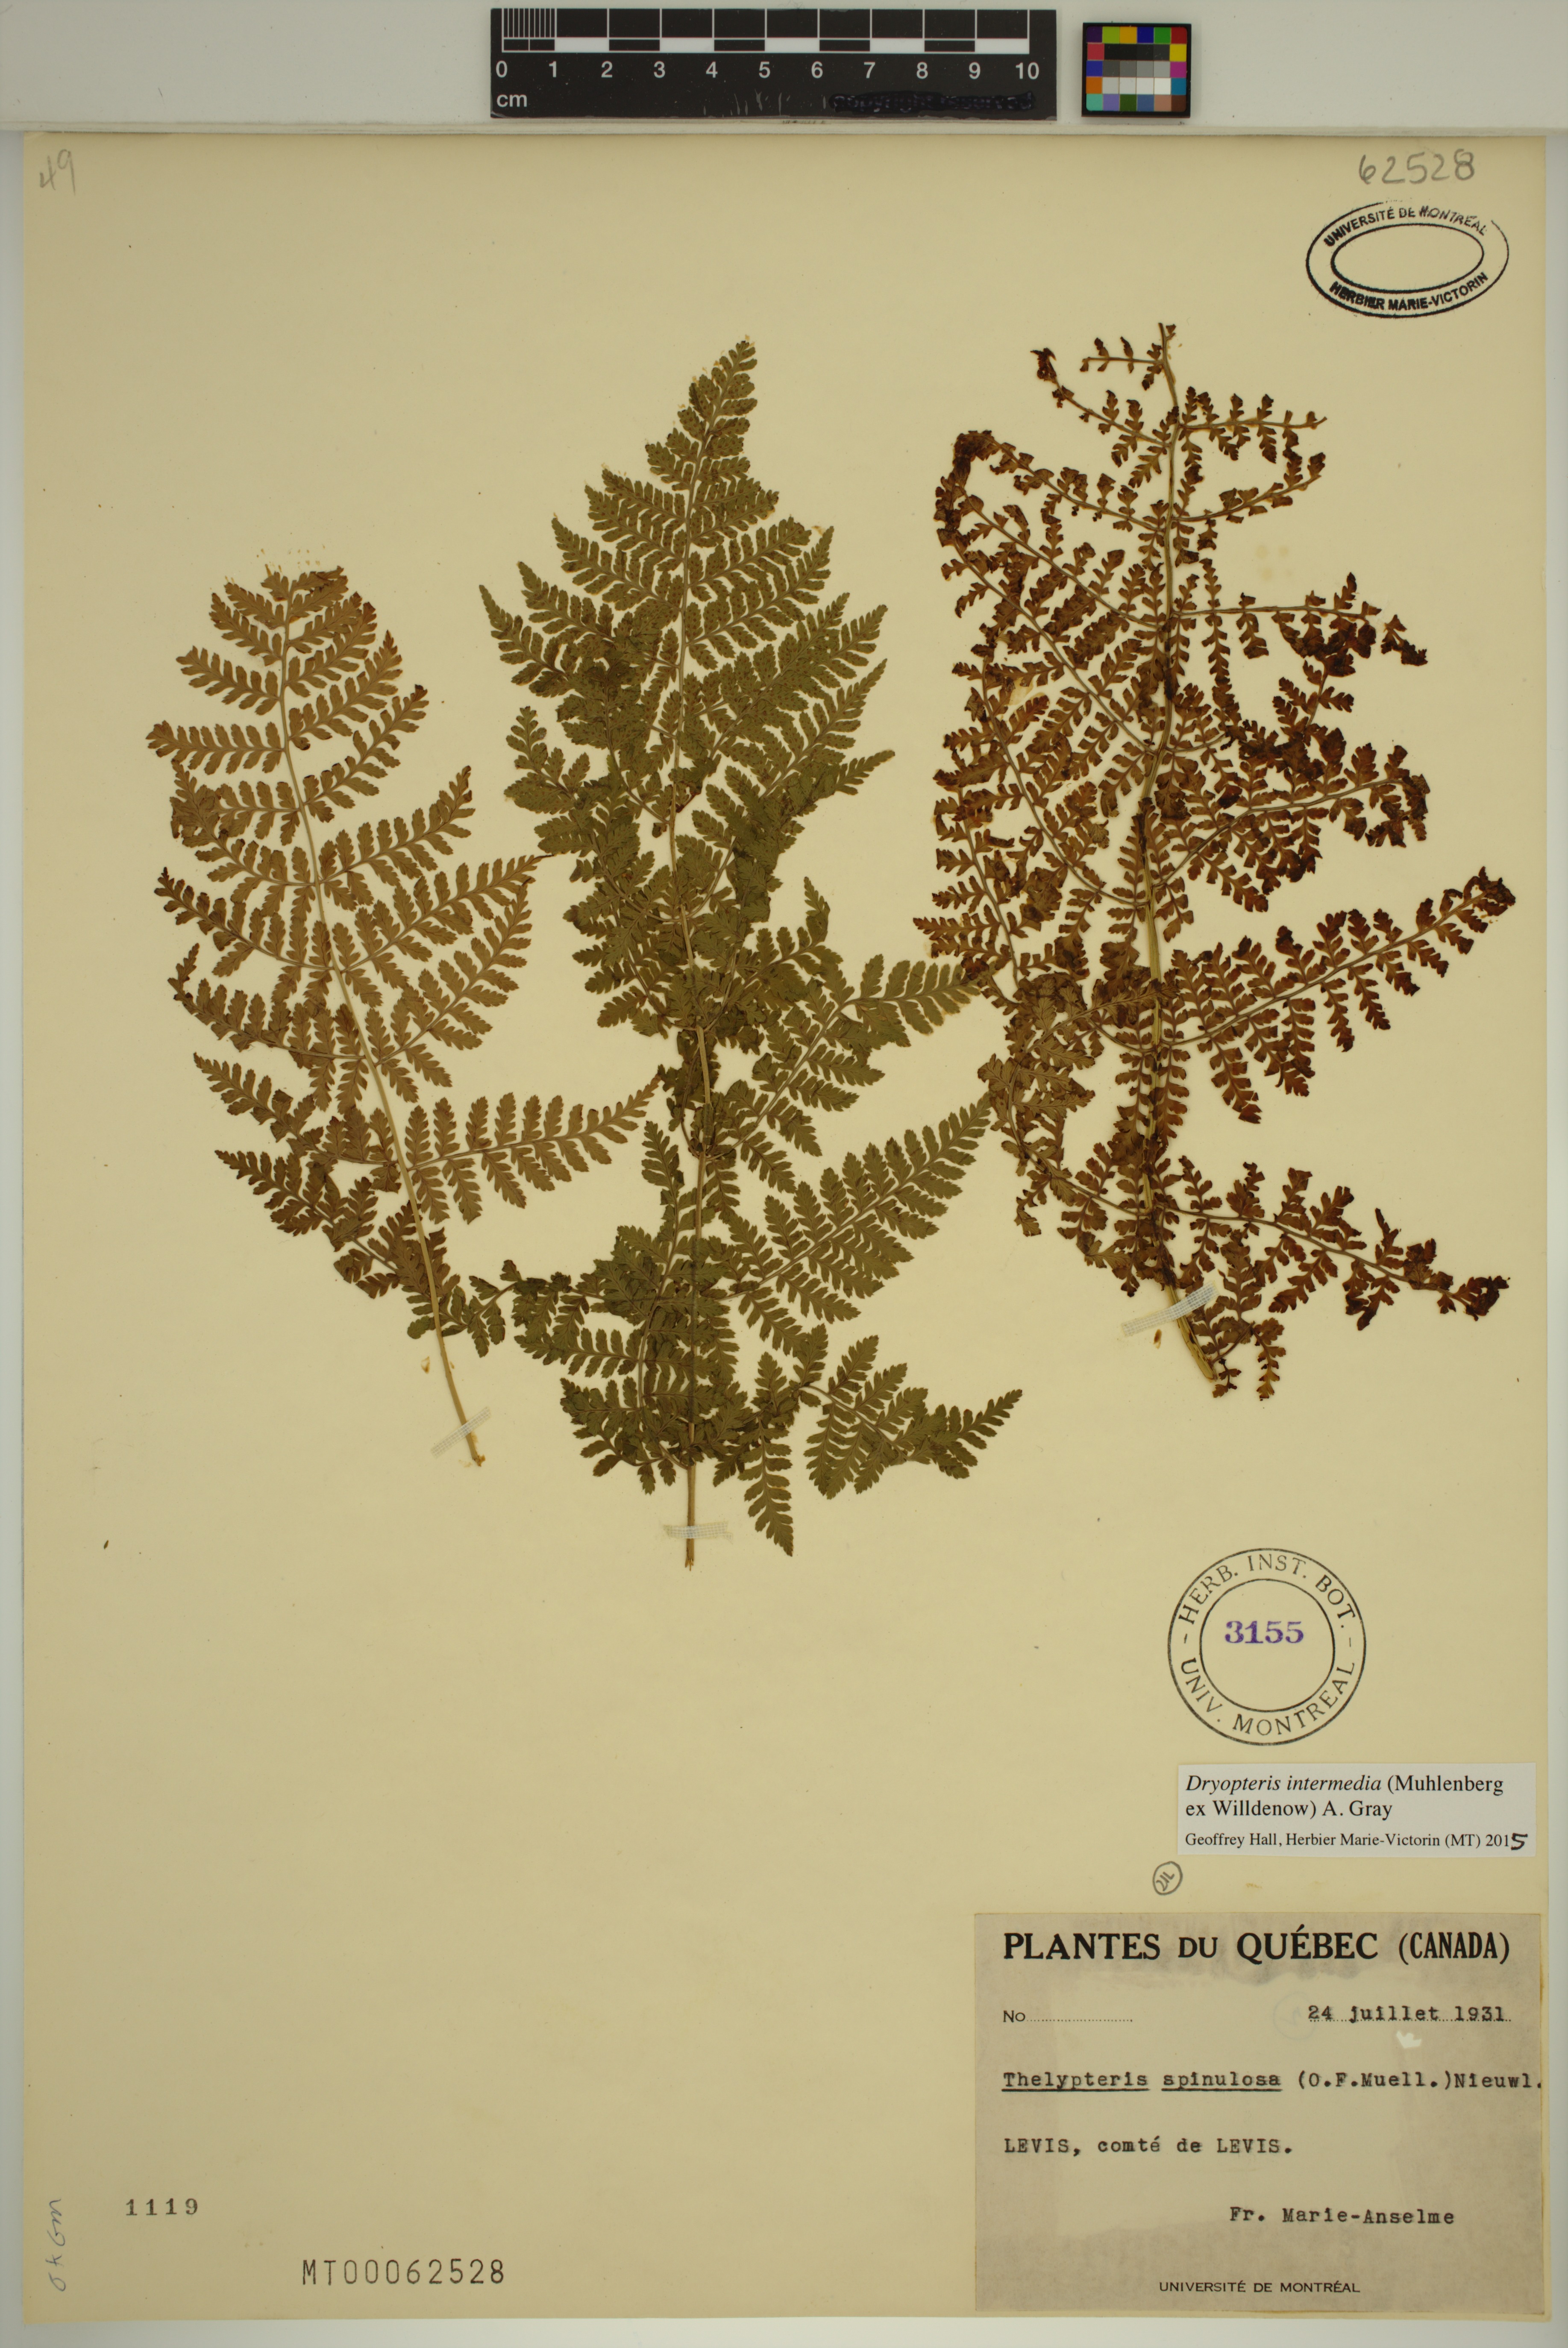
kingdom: Plantae
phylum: Tracheophyta
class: Polypodiopsida
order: Polypodiales
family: Dryopteridaceae
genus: Dryopteris
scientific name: Dryopteris intermedia
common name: Evergreen wood fern
